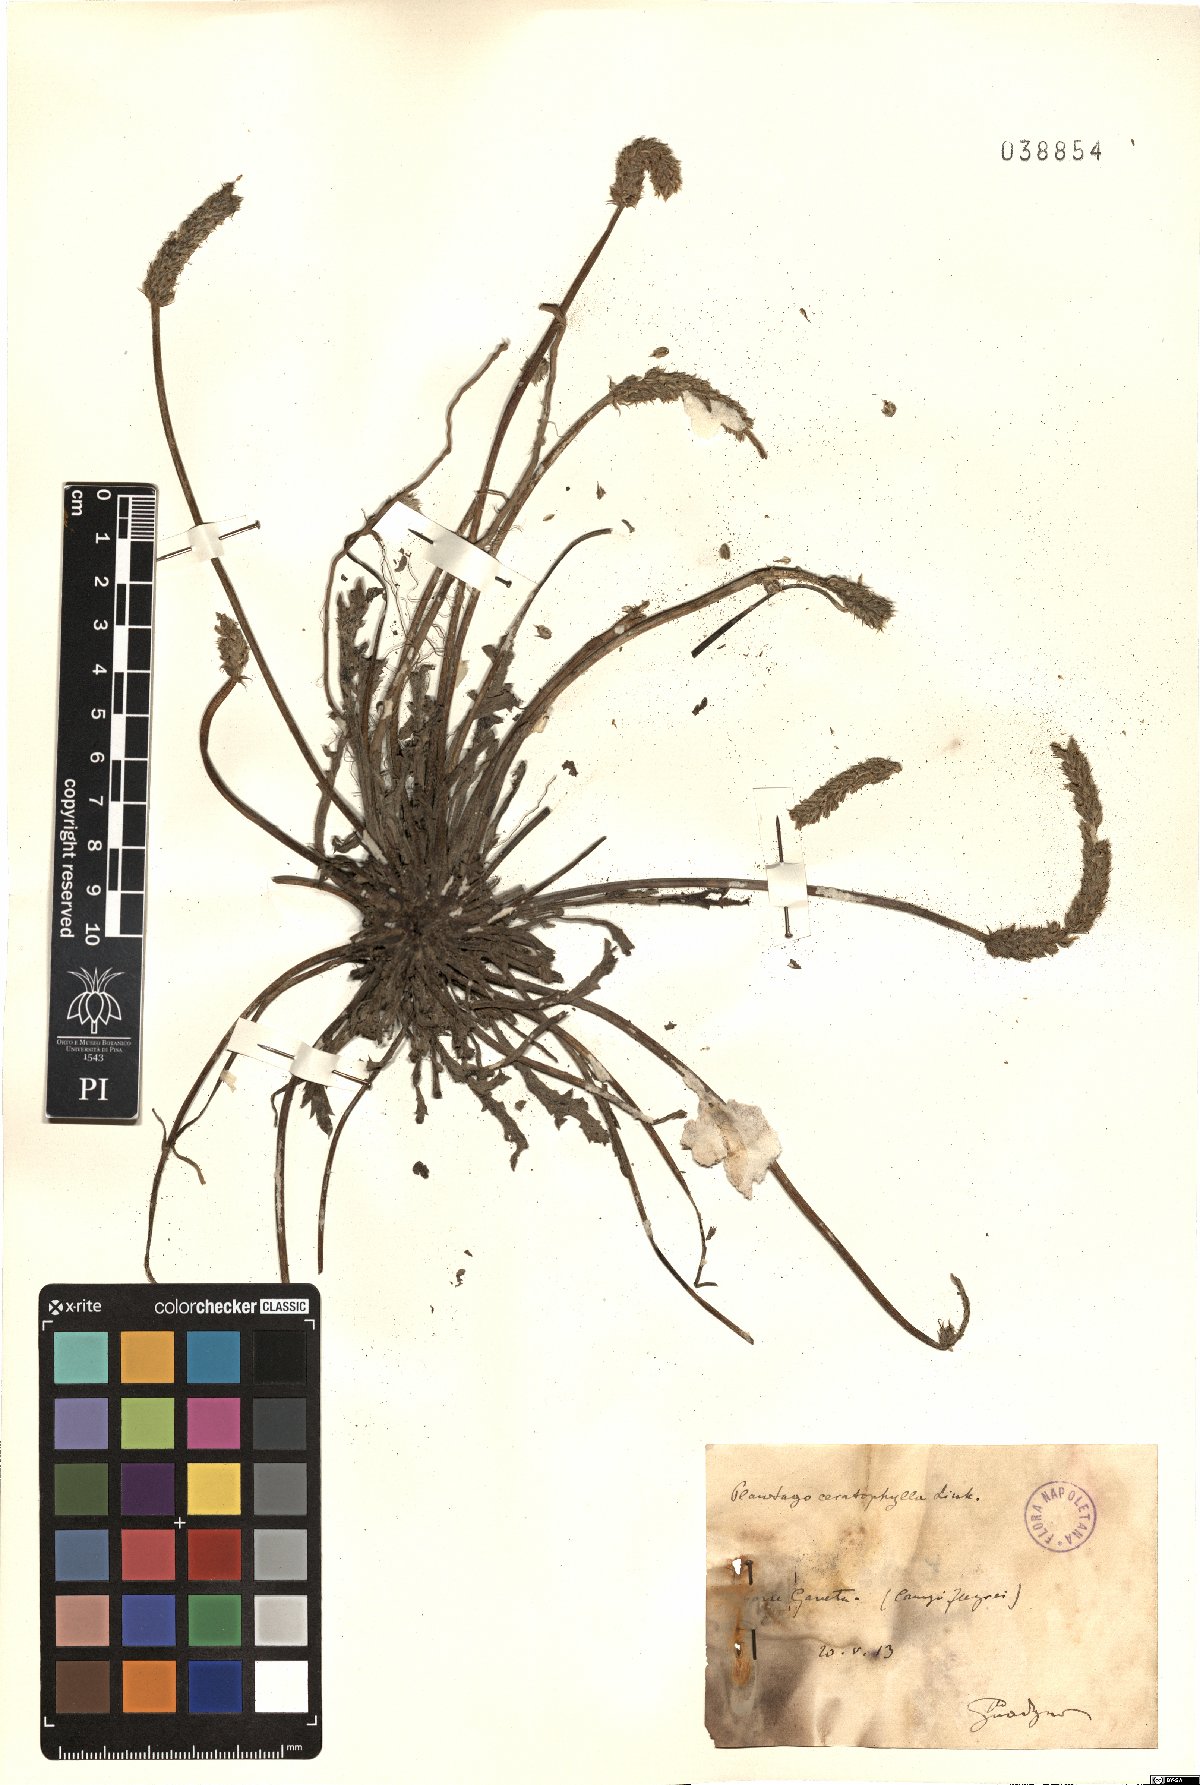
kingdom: Plantae
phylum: Tracheophyta
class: Magnoliopsida
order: Lamiales
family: Plantaginaceae
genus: Plantago
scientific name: Plantago coronopus
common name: Buck's-horn plantain
